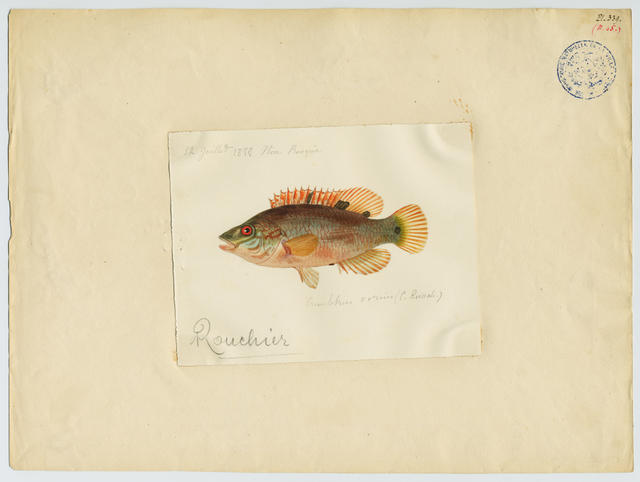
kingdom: Animalia
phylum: Chordata
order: Perciformes
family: Labridae
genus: Symphodus
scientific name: Symphodus roissali
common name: Five-spotted wrasse
